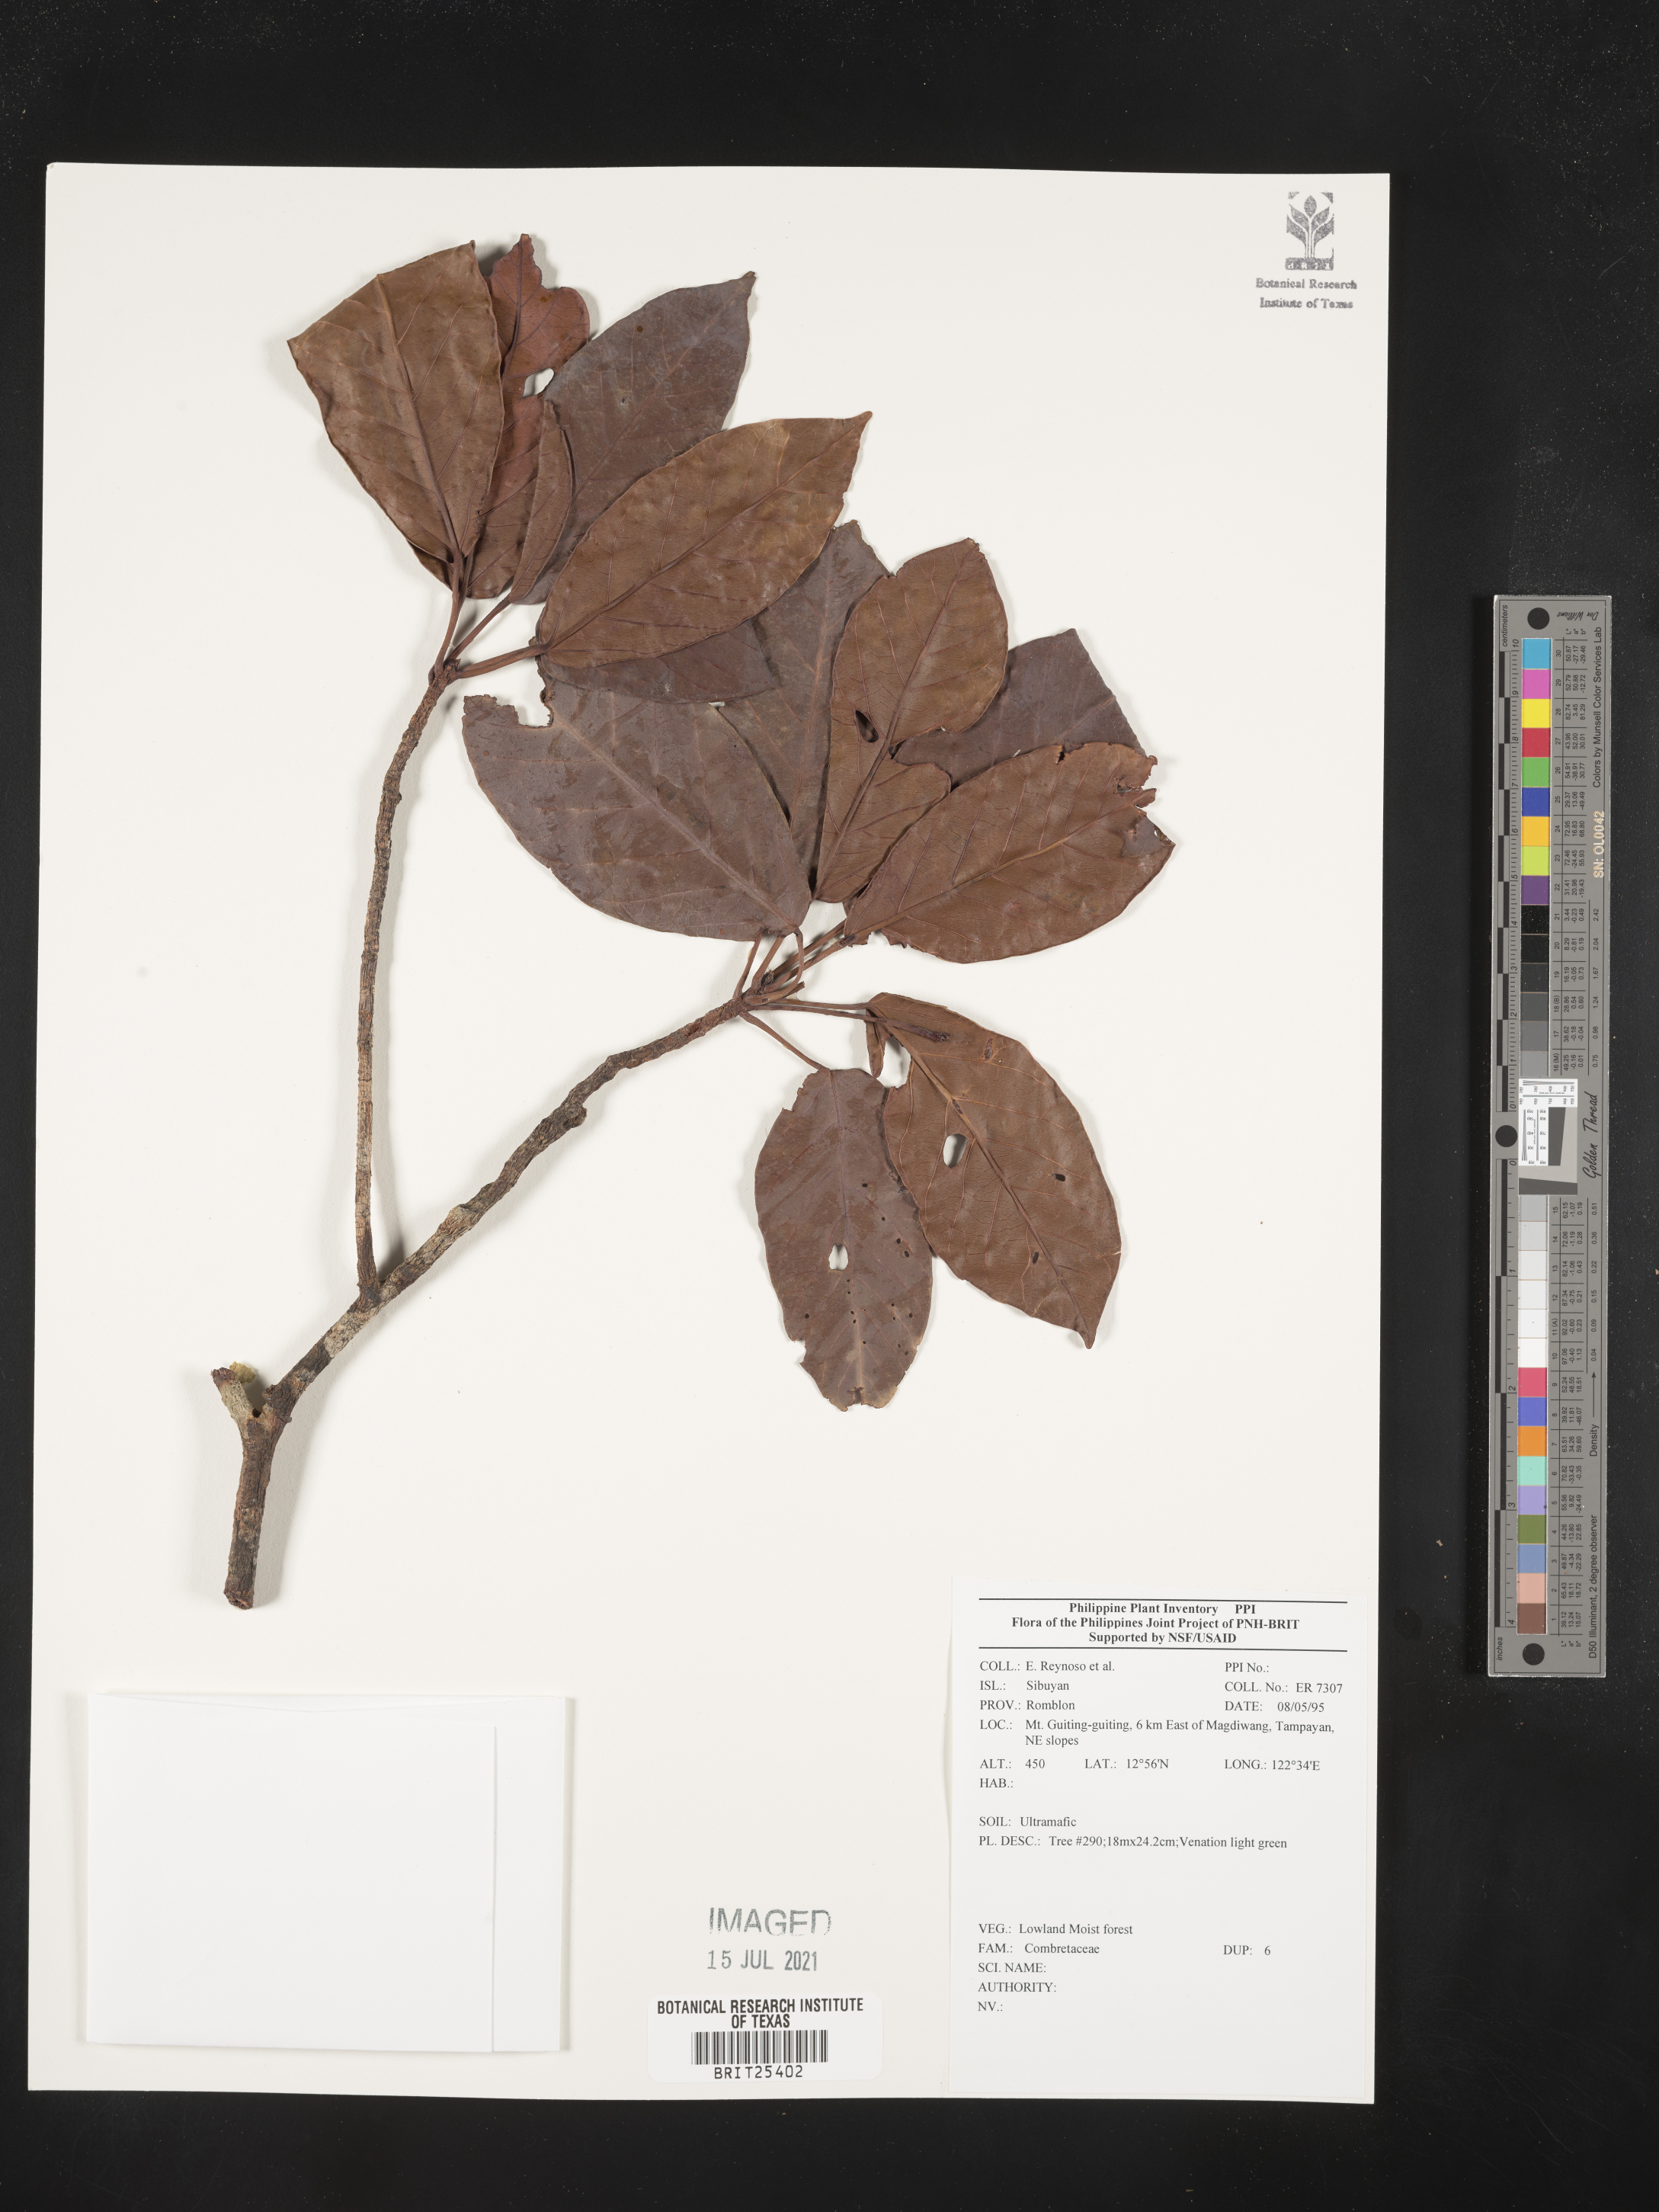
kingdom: Plantae
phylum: Tracheophyta
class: Magnoliopsida
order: Myrtales
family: Combretaceae
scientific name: Combretaceae
